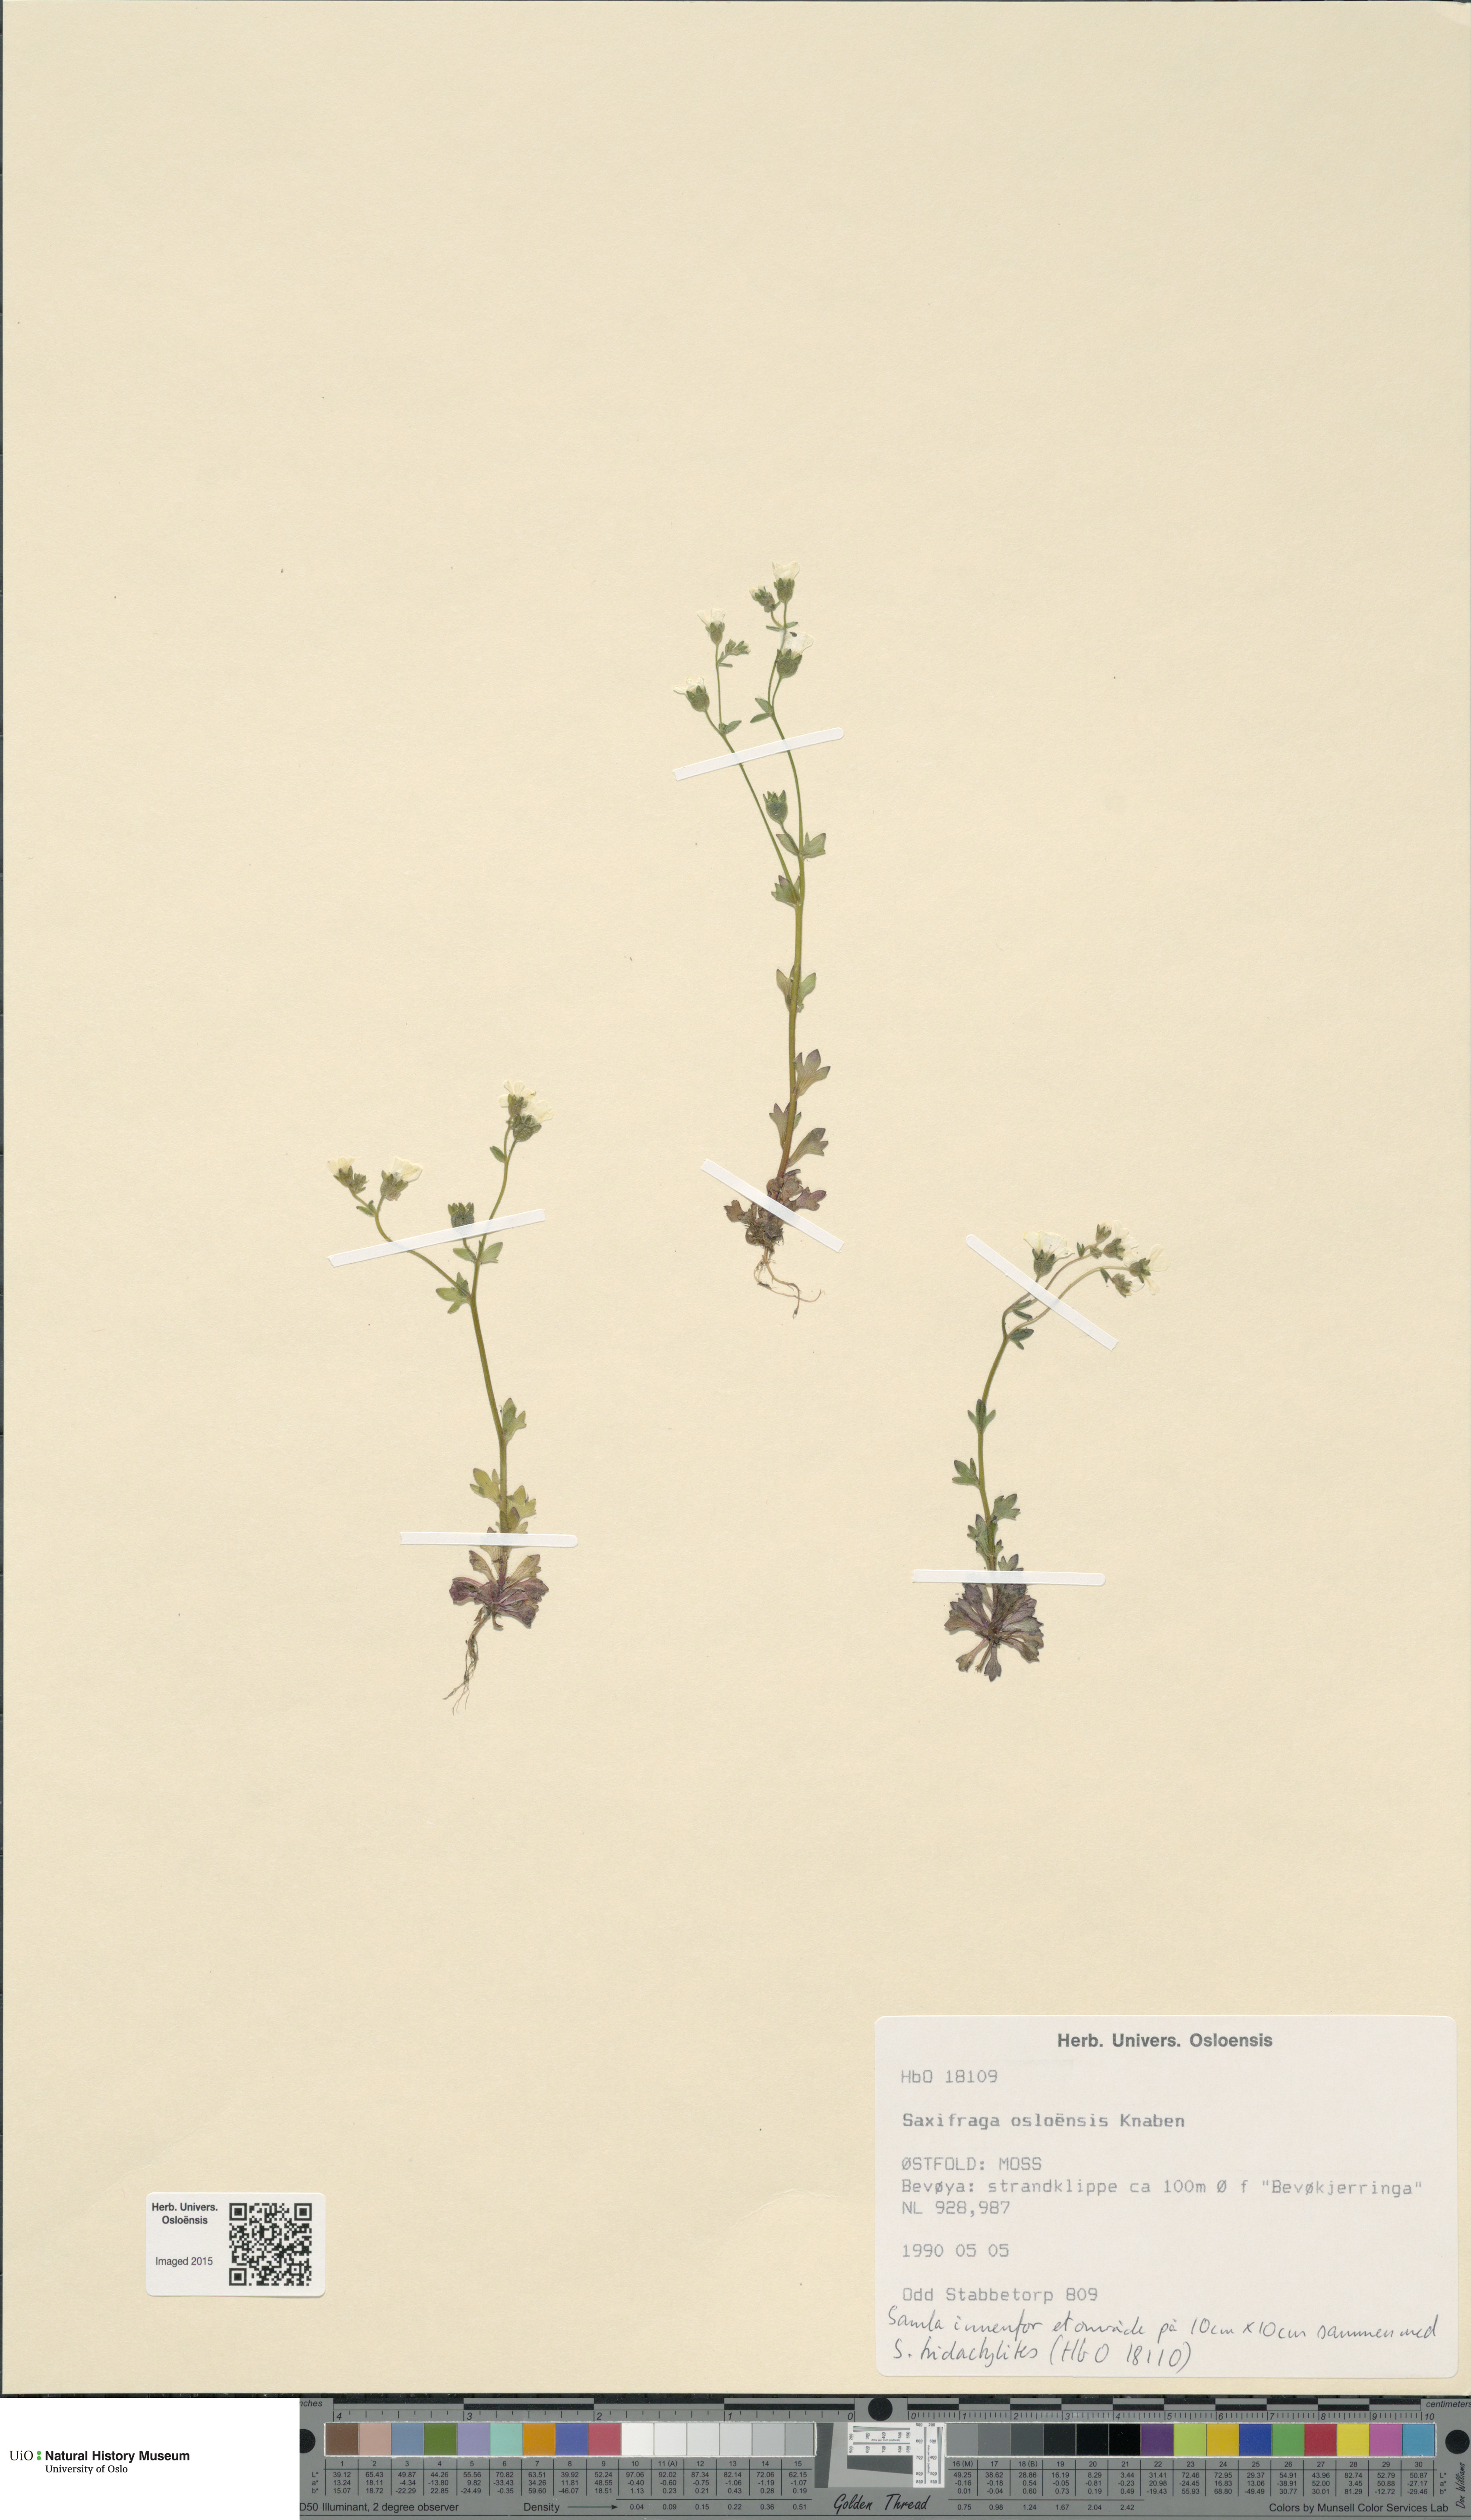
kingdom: Plantae
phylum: Tracheophyta
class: Magnoliopsida
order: Saxifragales
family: Saxifragaceae
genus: Saxifraga
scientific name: Saxifraga osloensis
